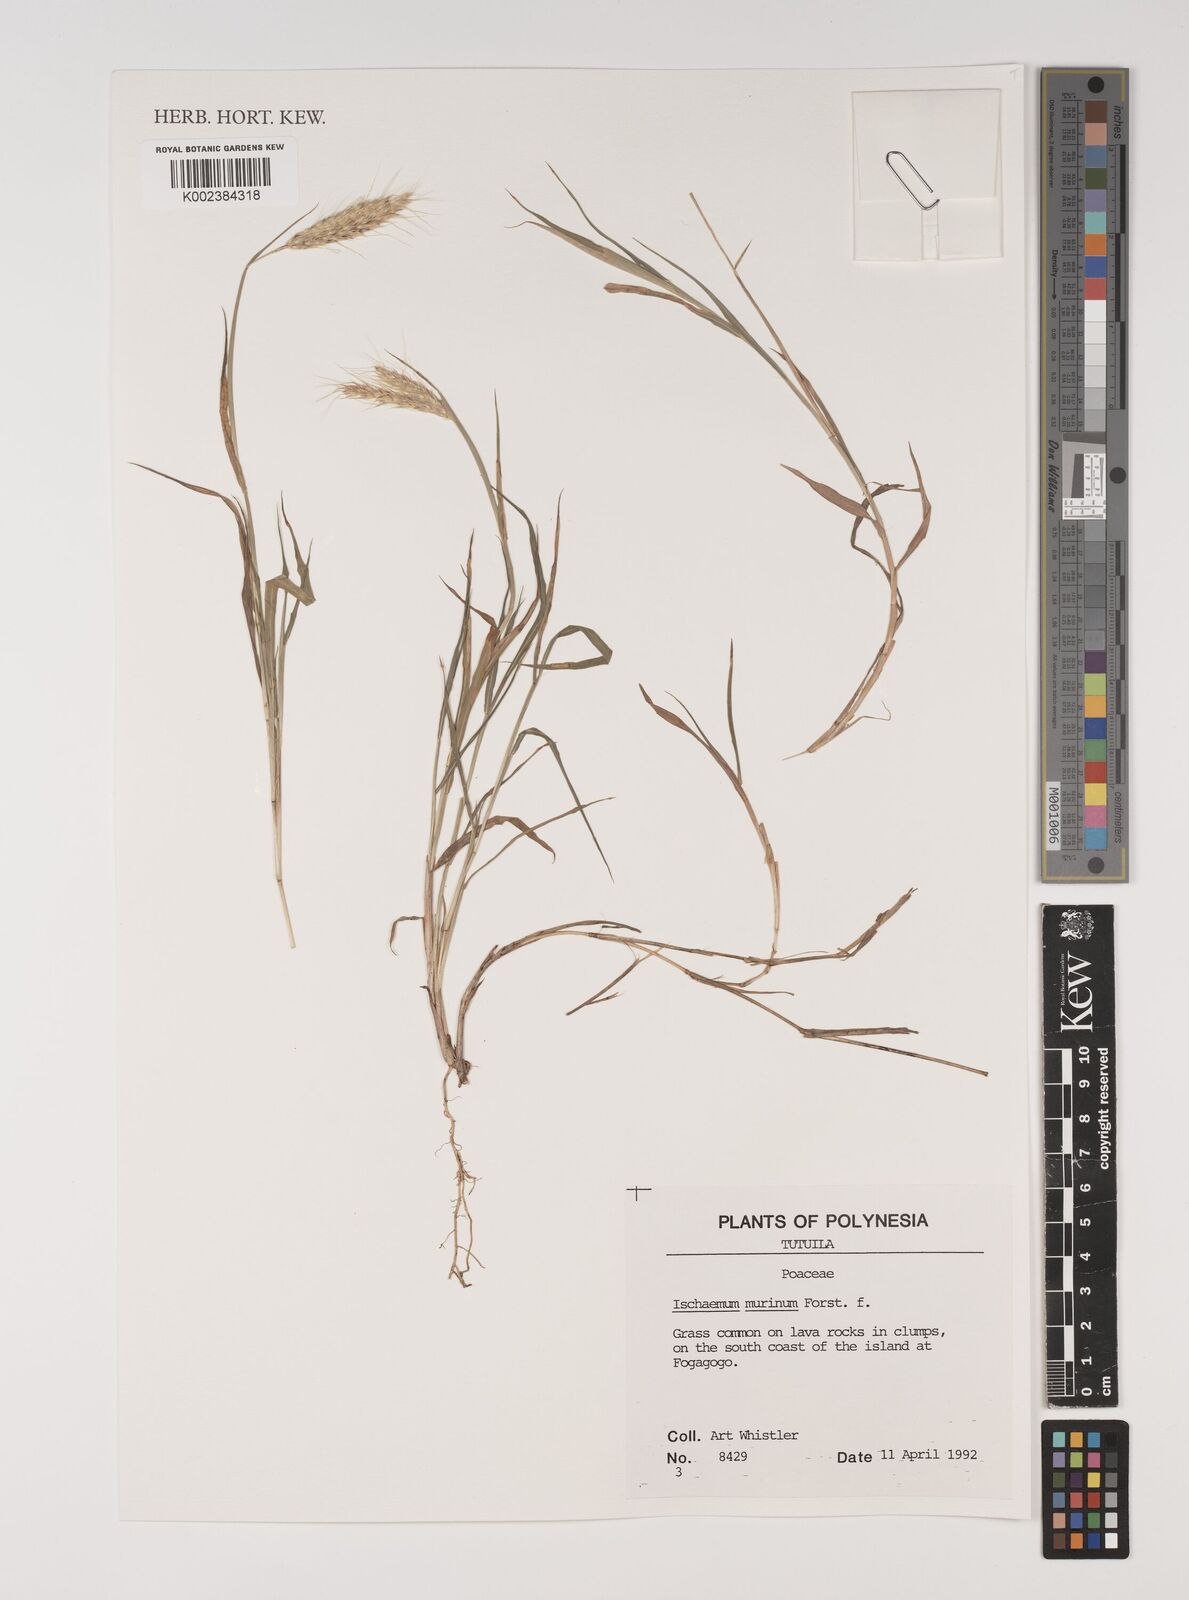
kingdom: Plantae
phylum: Tracheophyta
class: Liliopsida
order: Poales
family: Poaceae
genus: Ischaemum
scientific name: Ischaemum murinum
